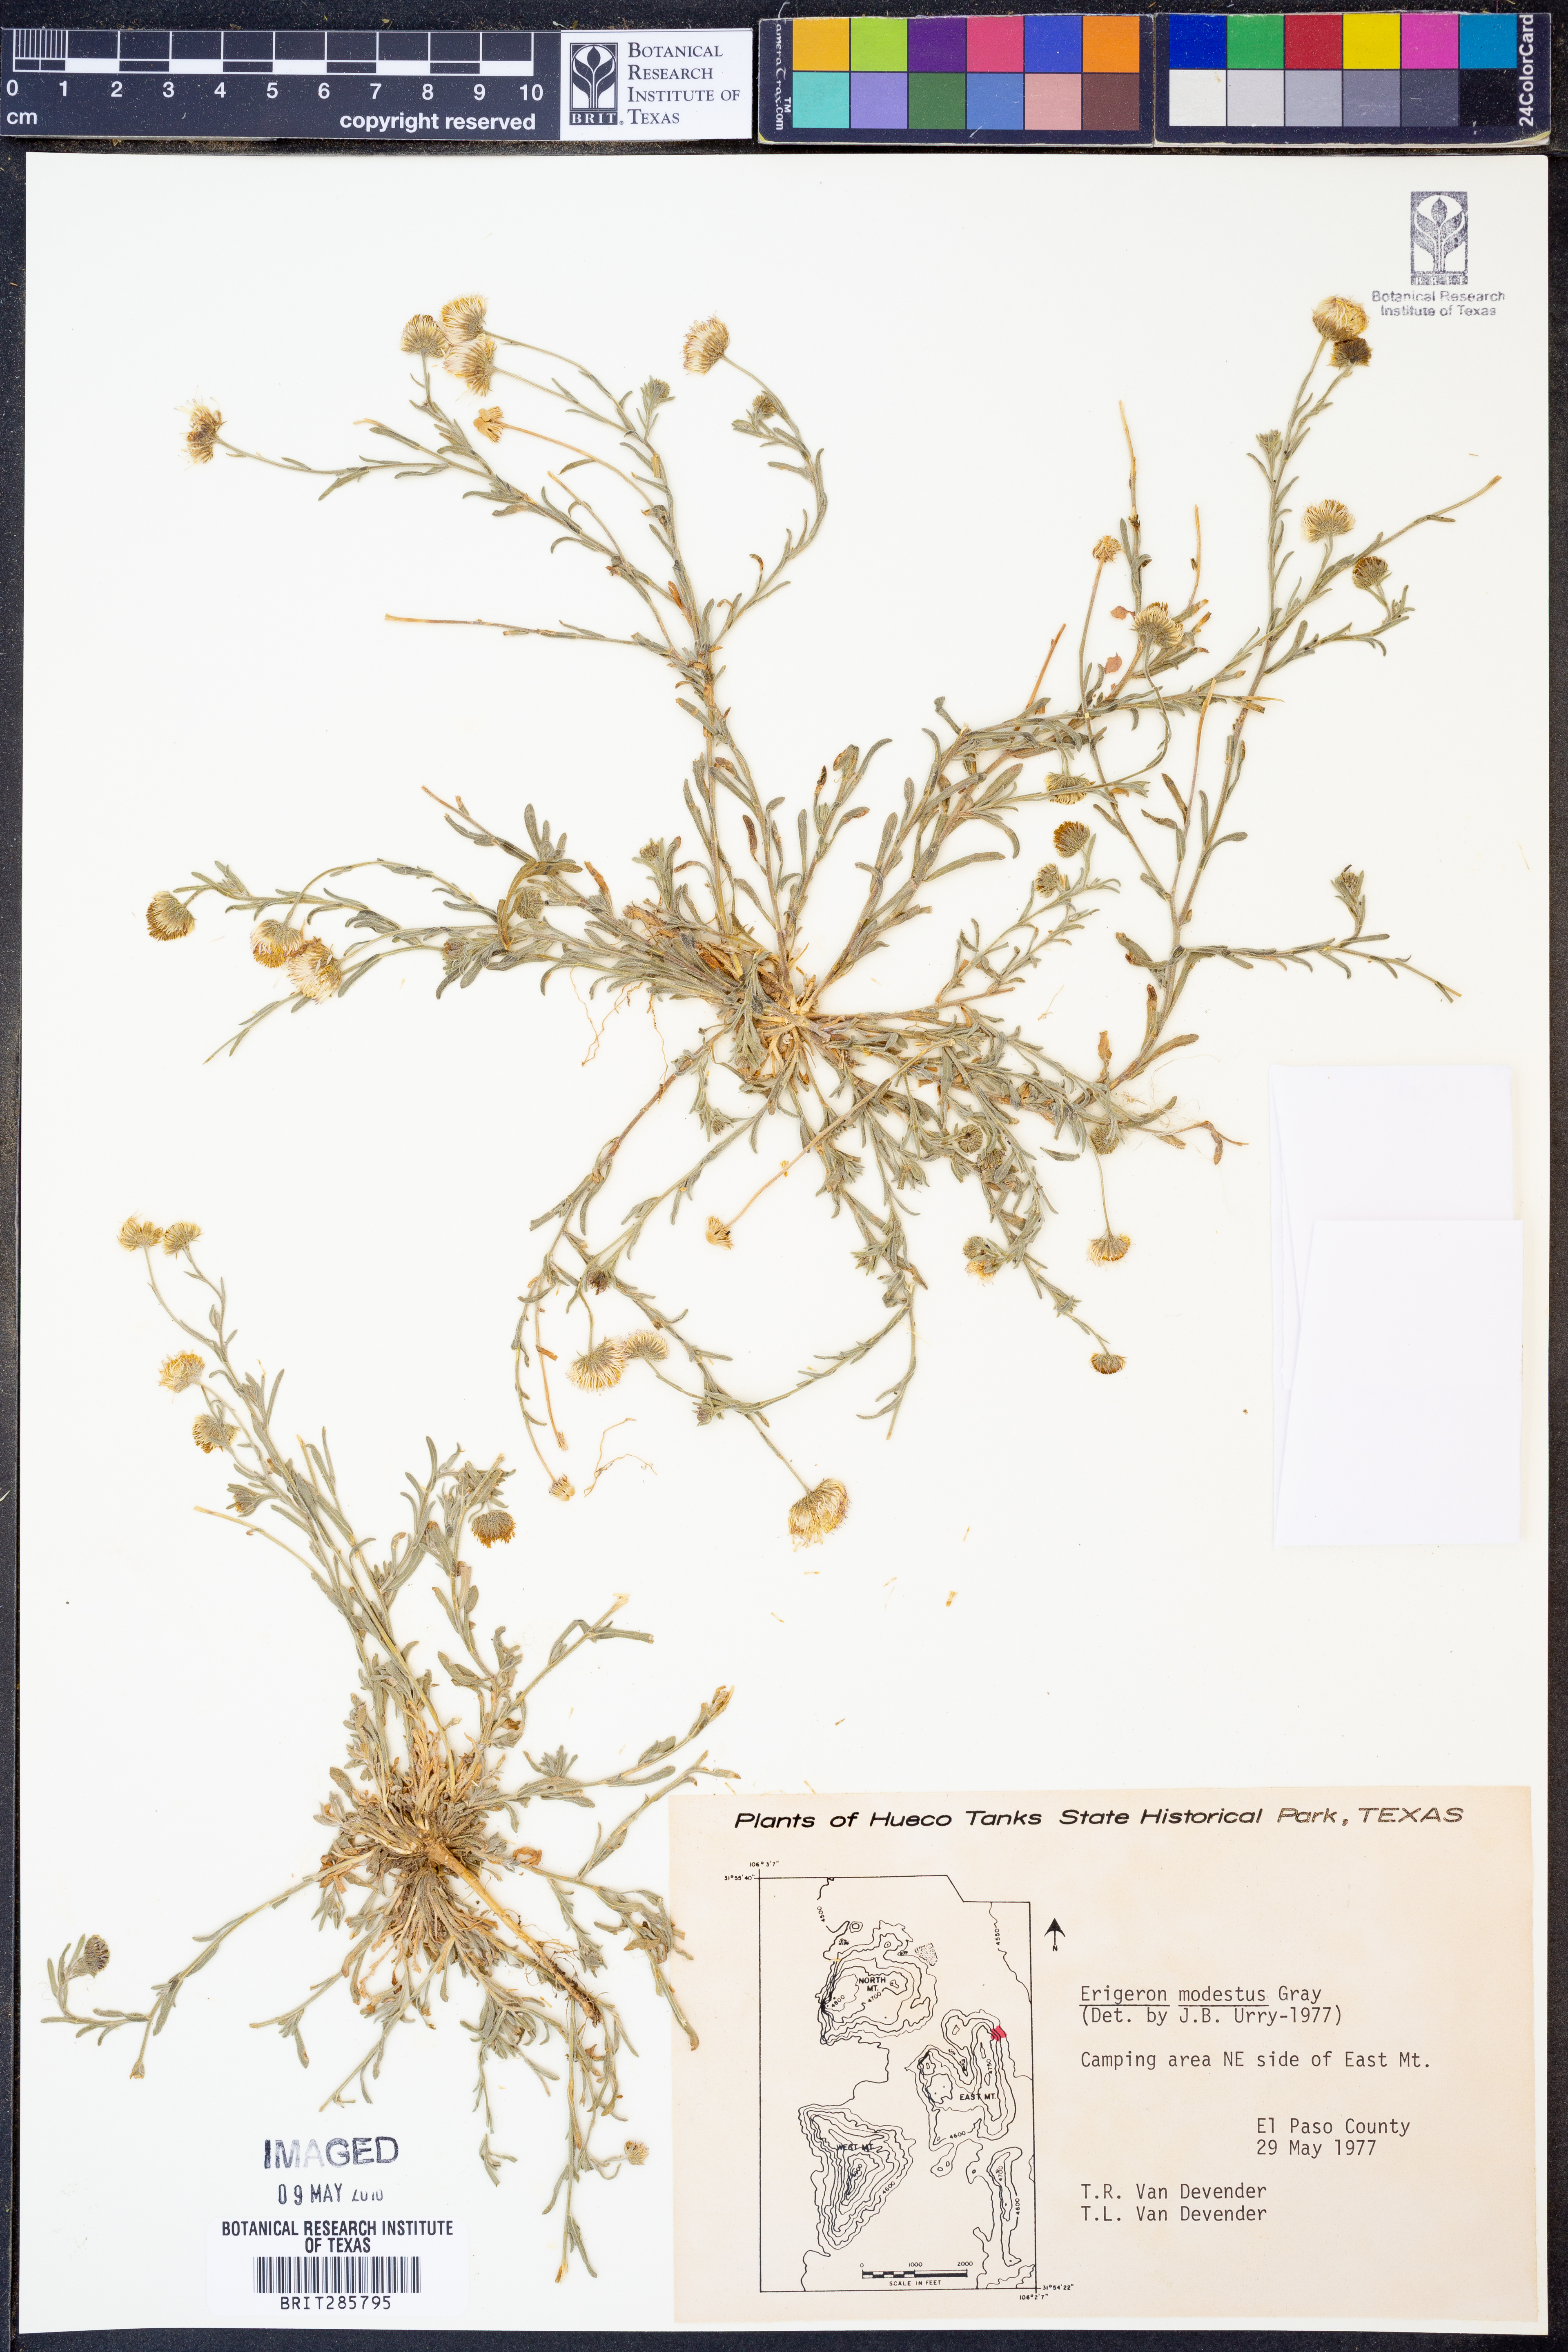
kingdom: Plantae
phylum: Tracheophyta
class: Magnoliopsida
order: Asterales
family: Asteraceae
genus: Erigeron
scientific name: Erigeron modestus
